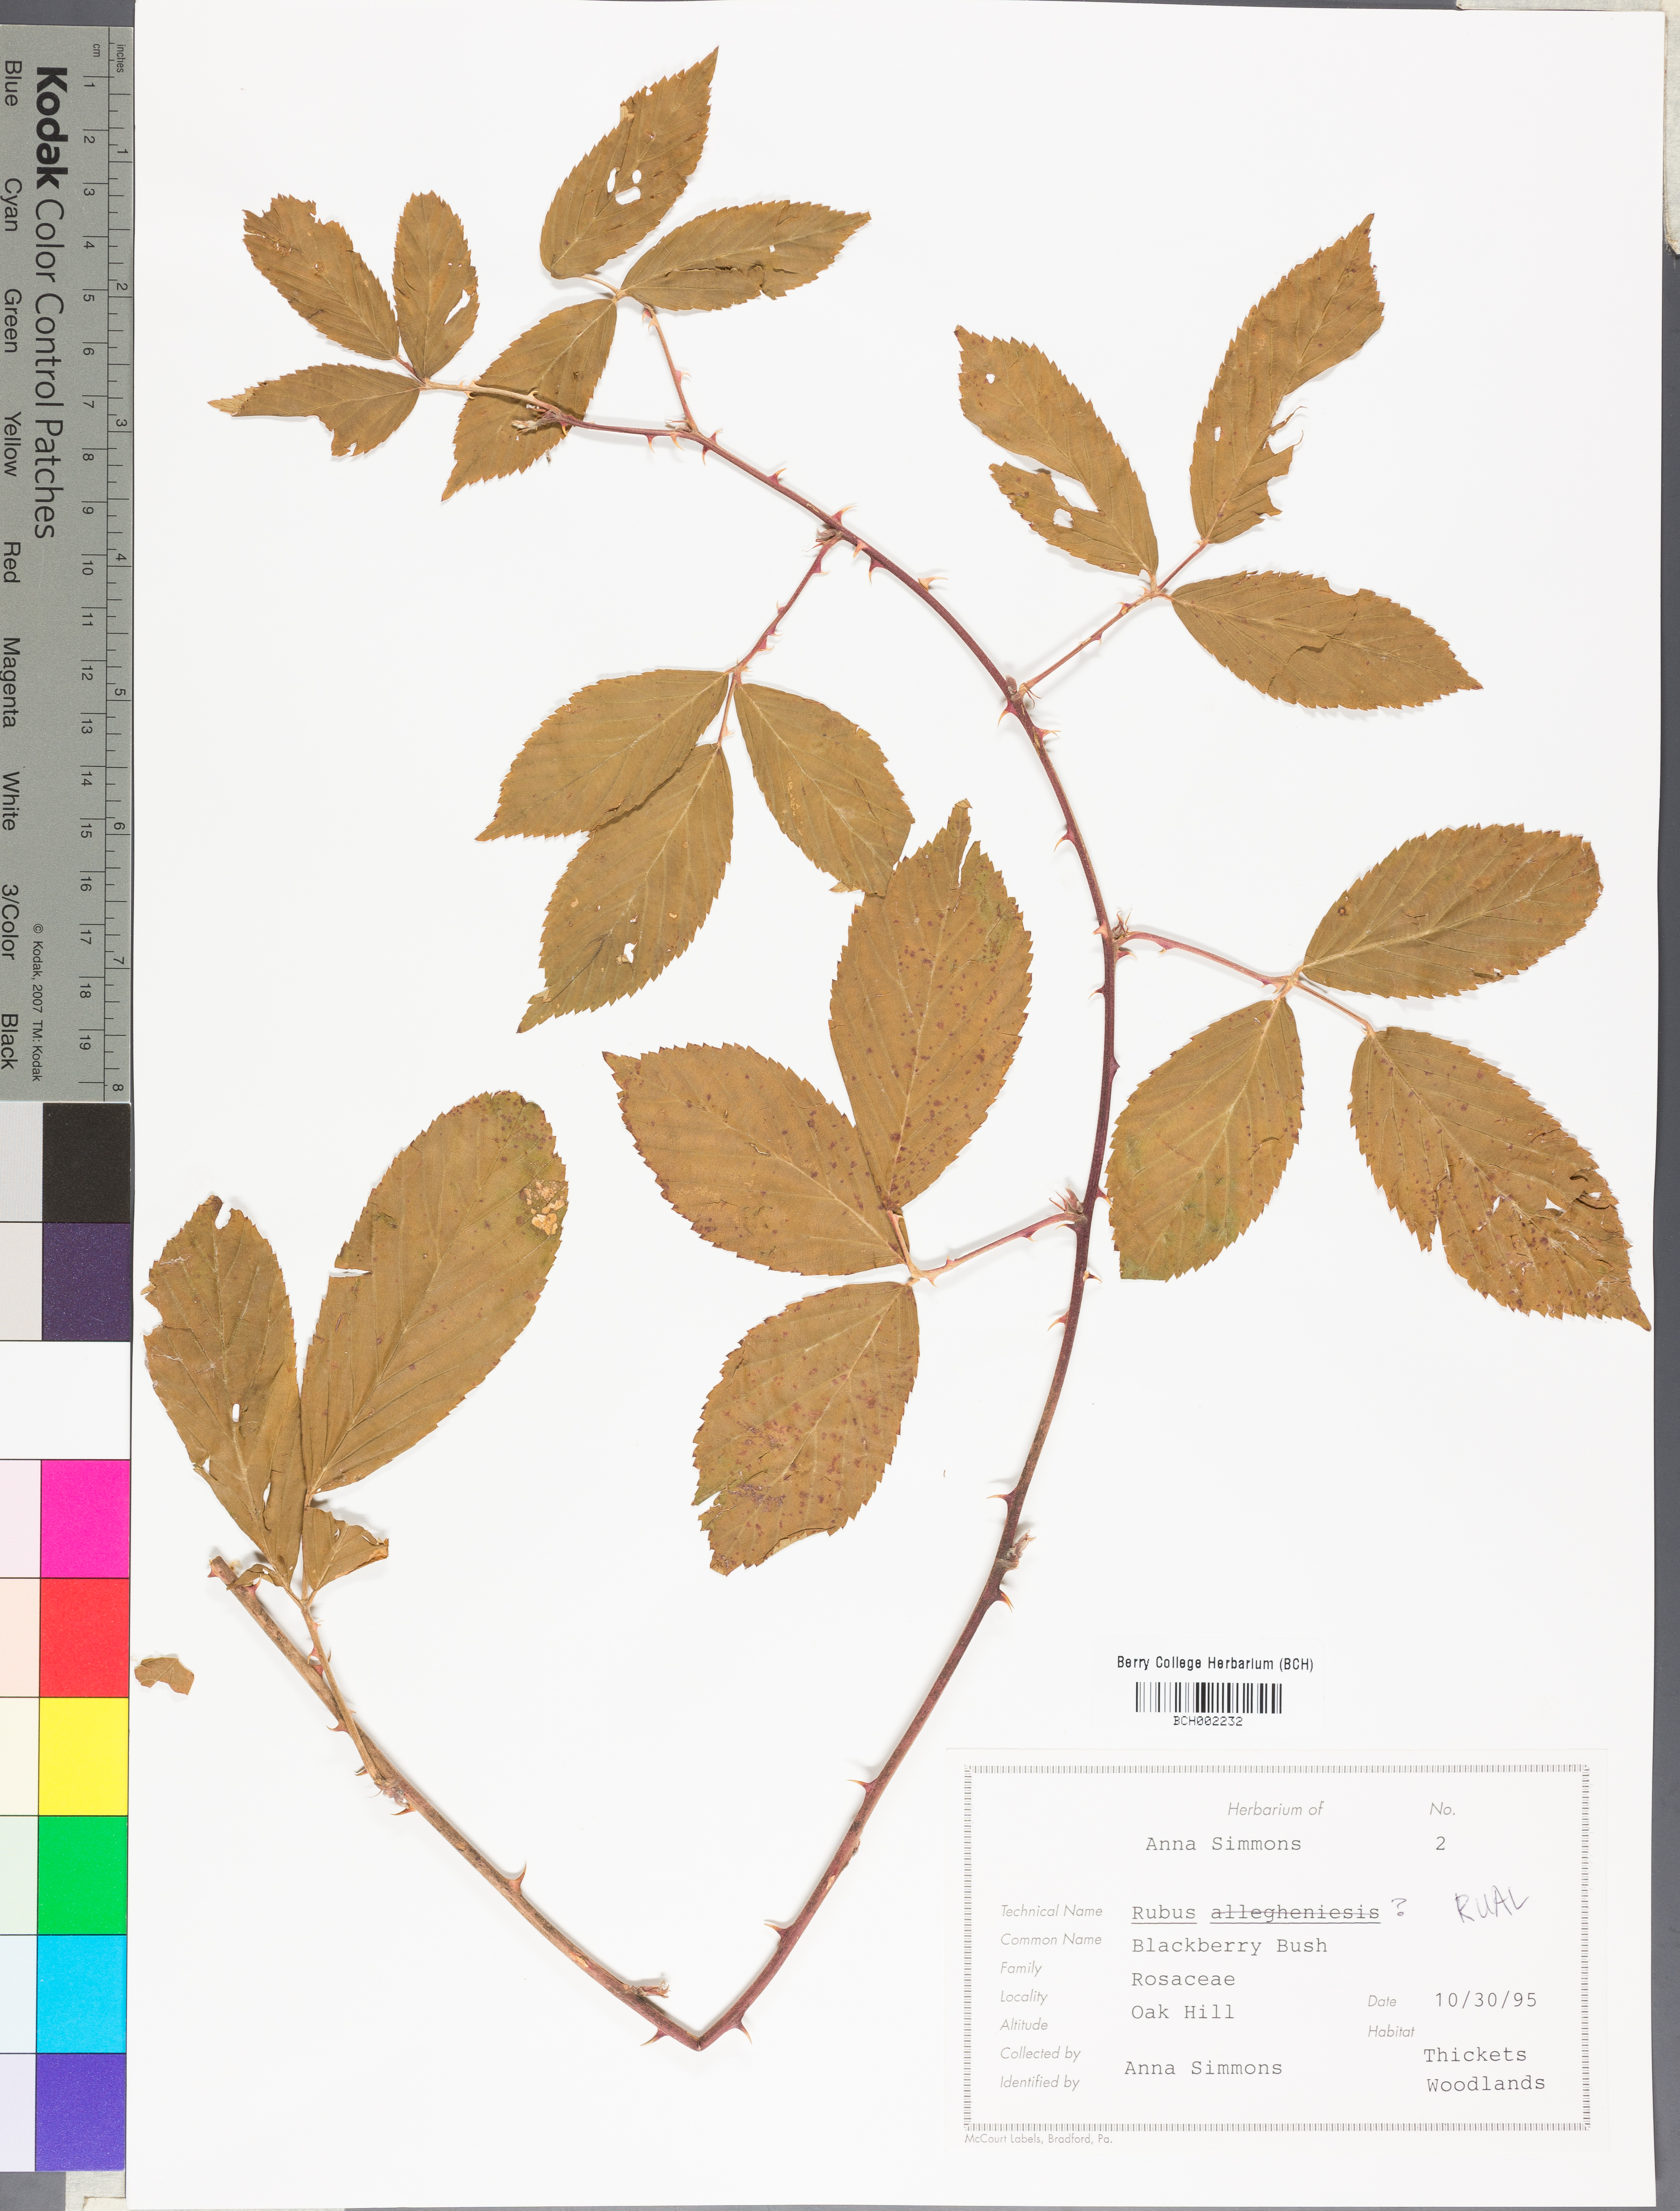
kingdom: Plantae
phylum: Tracheophyta
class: Magnoliopsida
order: Rosales
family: Rosaceae
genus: Rubus
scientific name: Rubus allegheniensis
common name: Allegheny blackberry
